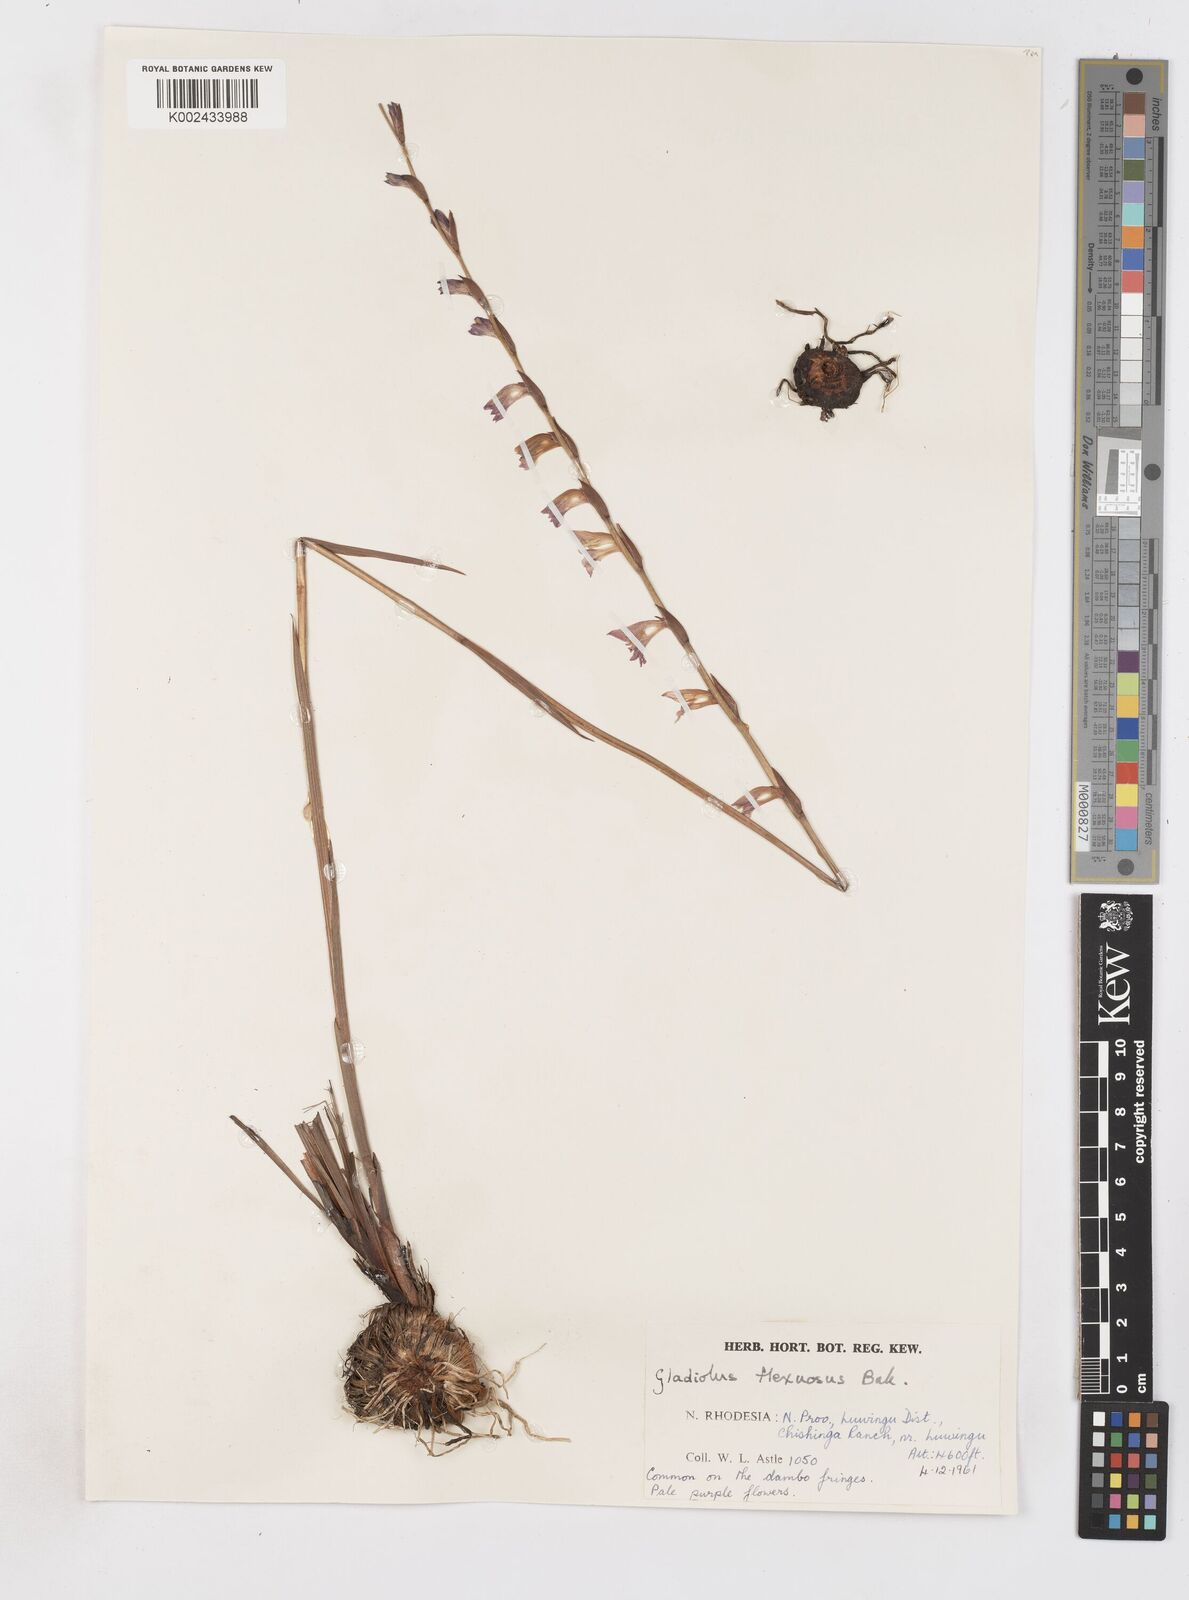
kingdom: Plantae
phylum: Tracheophyta
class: Liliopsida
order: Asparagales
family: Iridaceae
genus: Gladiolus
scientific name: Gladiolus atropurpureus
